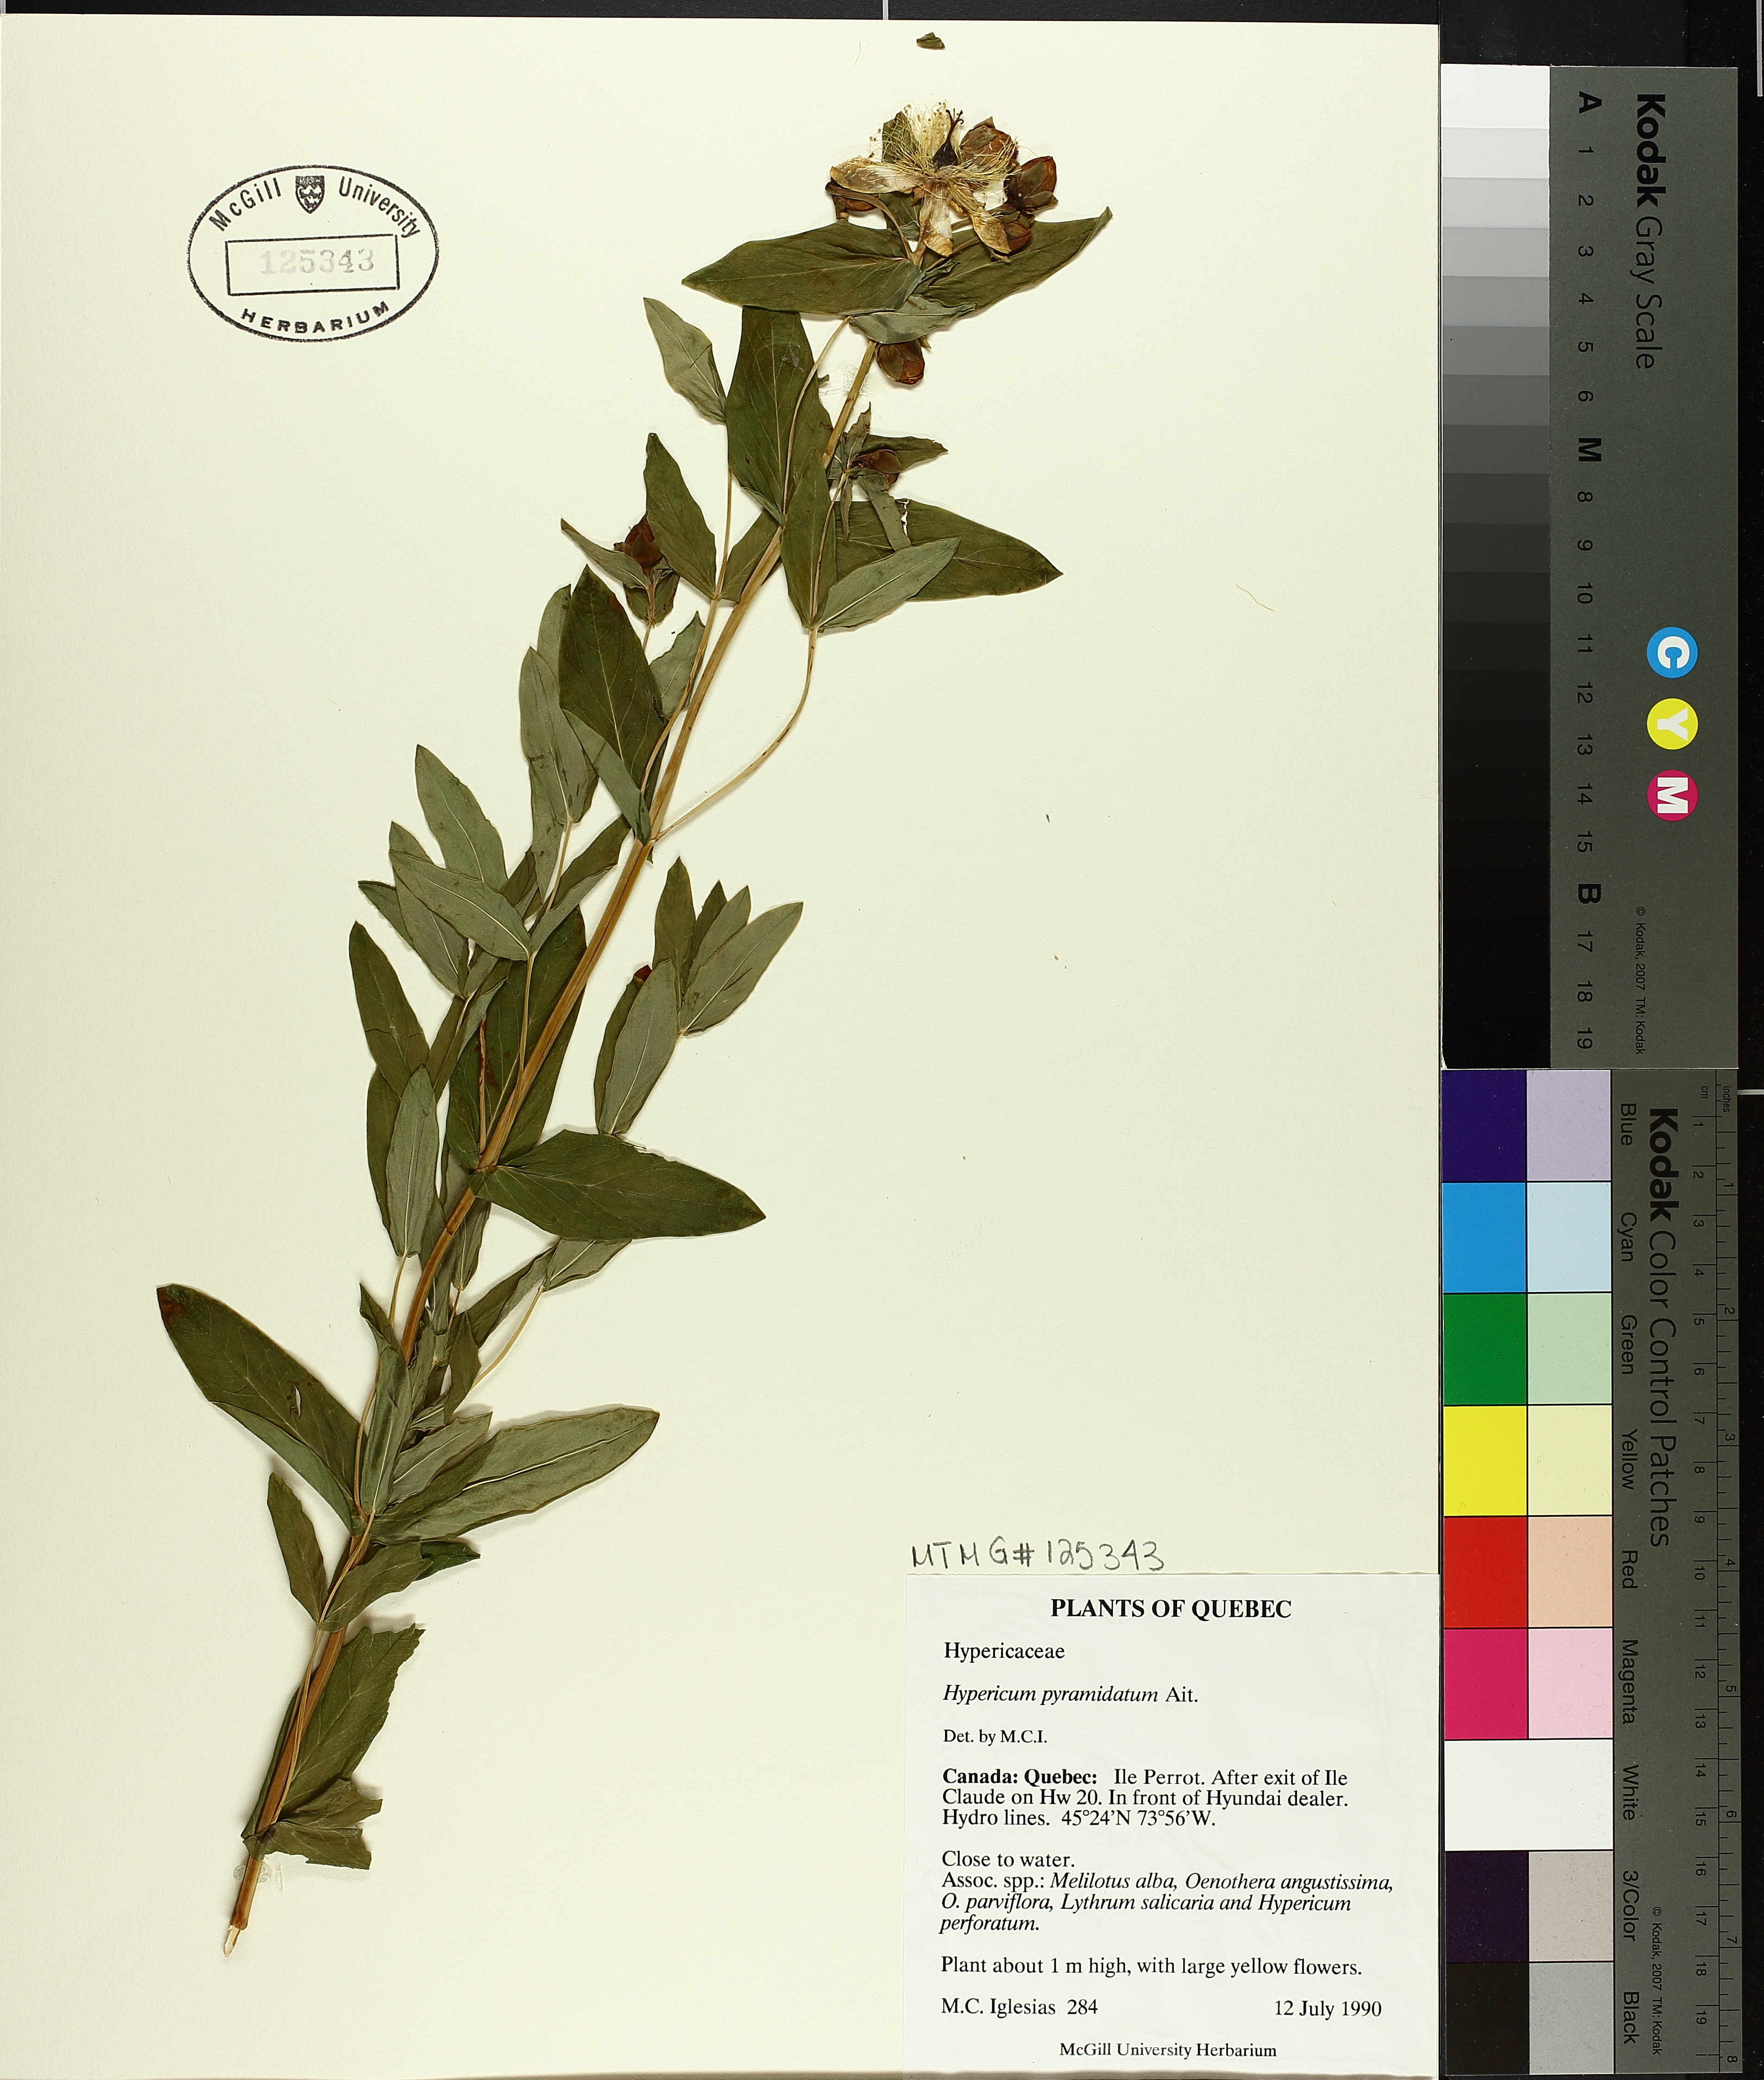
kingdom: Plantae
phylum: Tracheophyta
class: Magnoliopsida
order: Malpighiales
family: Hypericaceae
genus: Hypericum
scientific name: Hypericum ascyron
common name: Giant st. john's-wort
